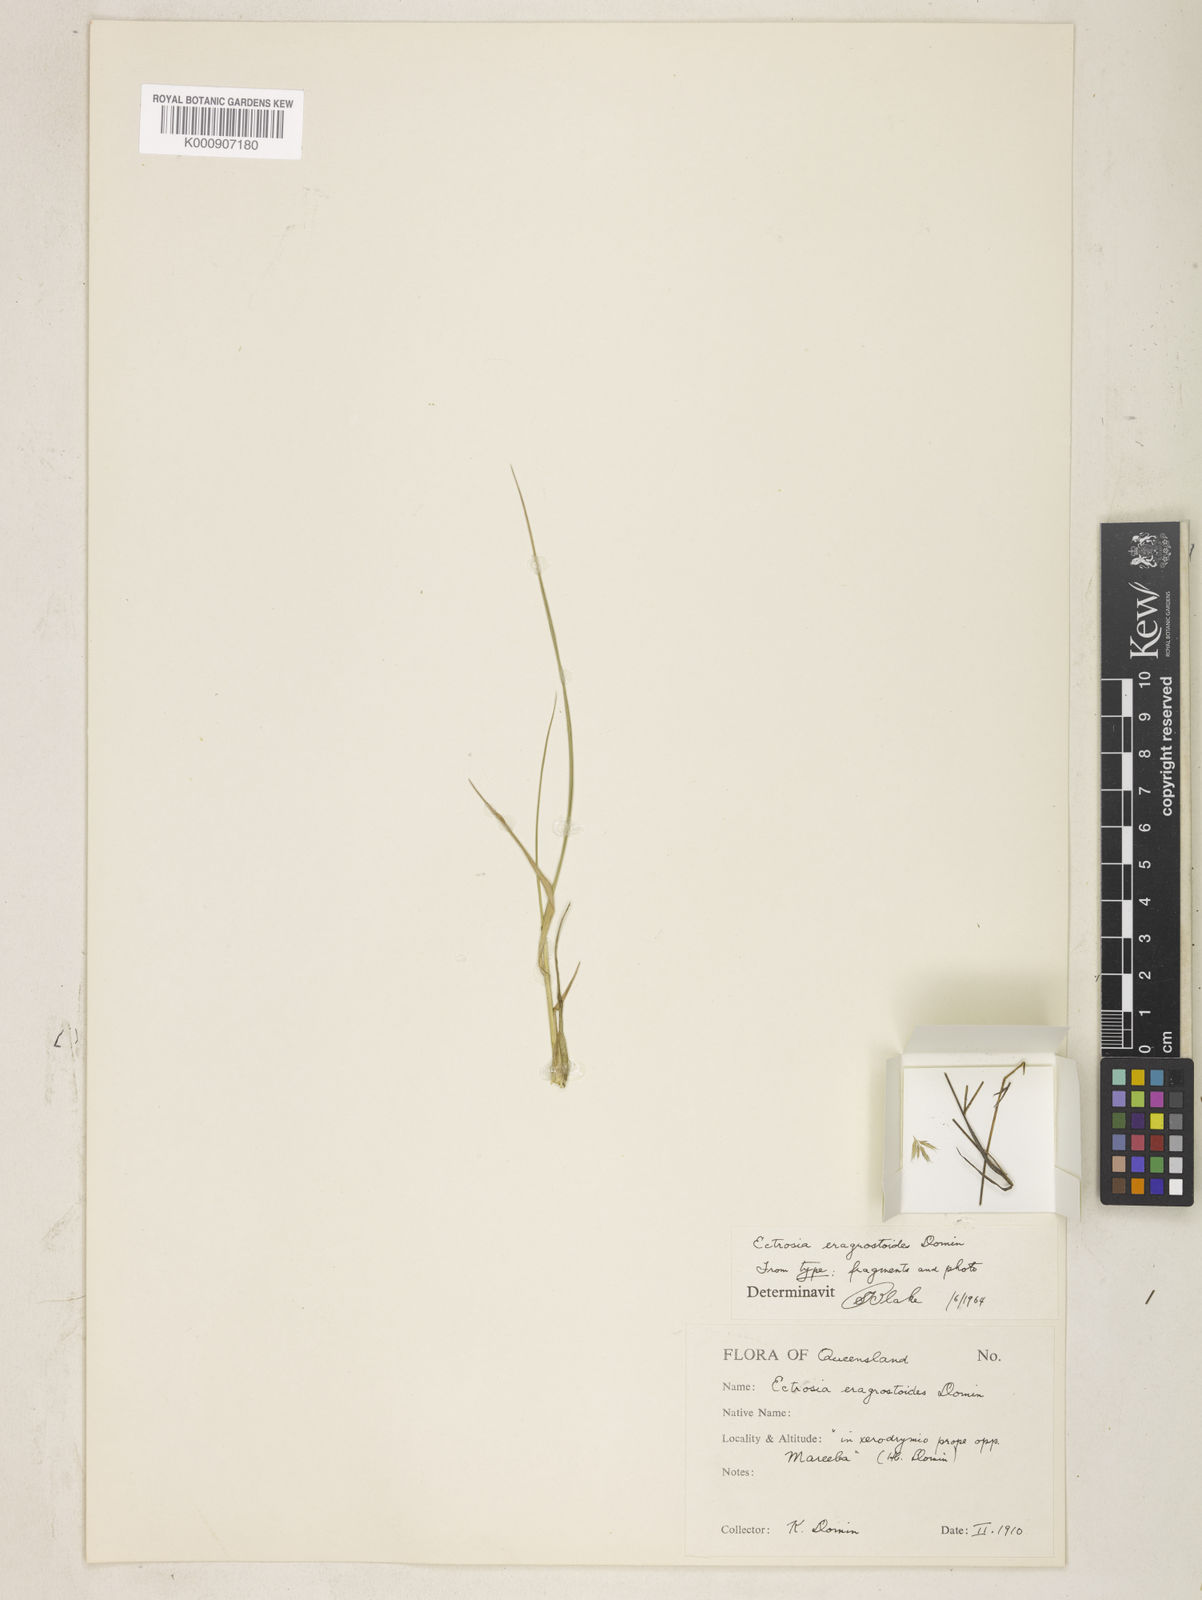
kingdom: Plantae
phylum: Tracheophyta
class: Liliopsida
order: Poales
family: Poaceae
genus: Eragrostis
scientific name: Eragrostis lasioclada
